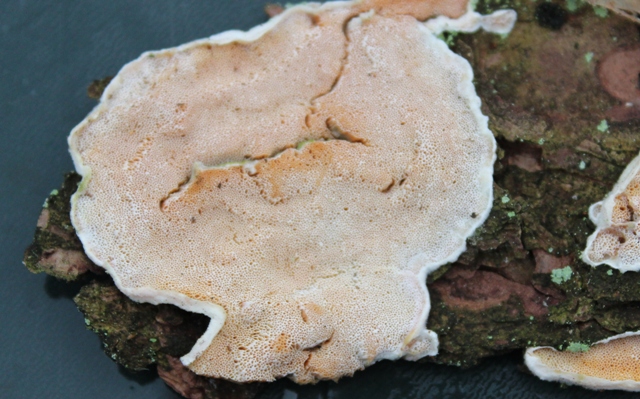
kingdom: Fungi
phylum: Basidiomycota
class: Agaricomycetes
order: Polyporales
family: Incrustoporiaceae
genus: Skeletocutis
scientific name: Skeletocutis amorpha
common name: orange krystalporesvamp
